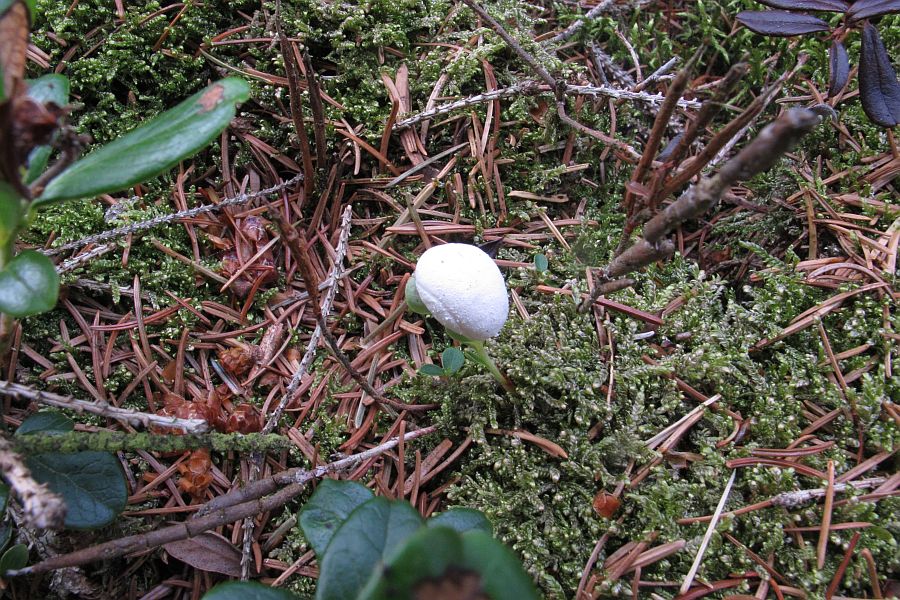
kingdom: Fungi
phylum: Basidiomycota
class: Exobasidiomycetes
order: Exobasidiales
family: Exobasidiaceae
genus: Exobasidium
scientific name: Exobasidium vaccinii
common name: tyttebærblad-bøllesvamp
